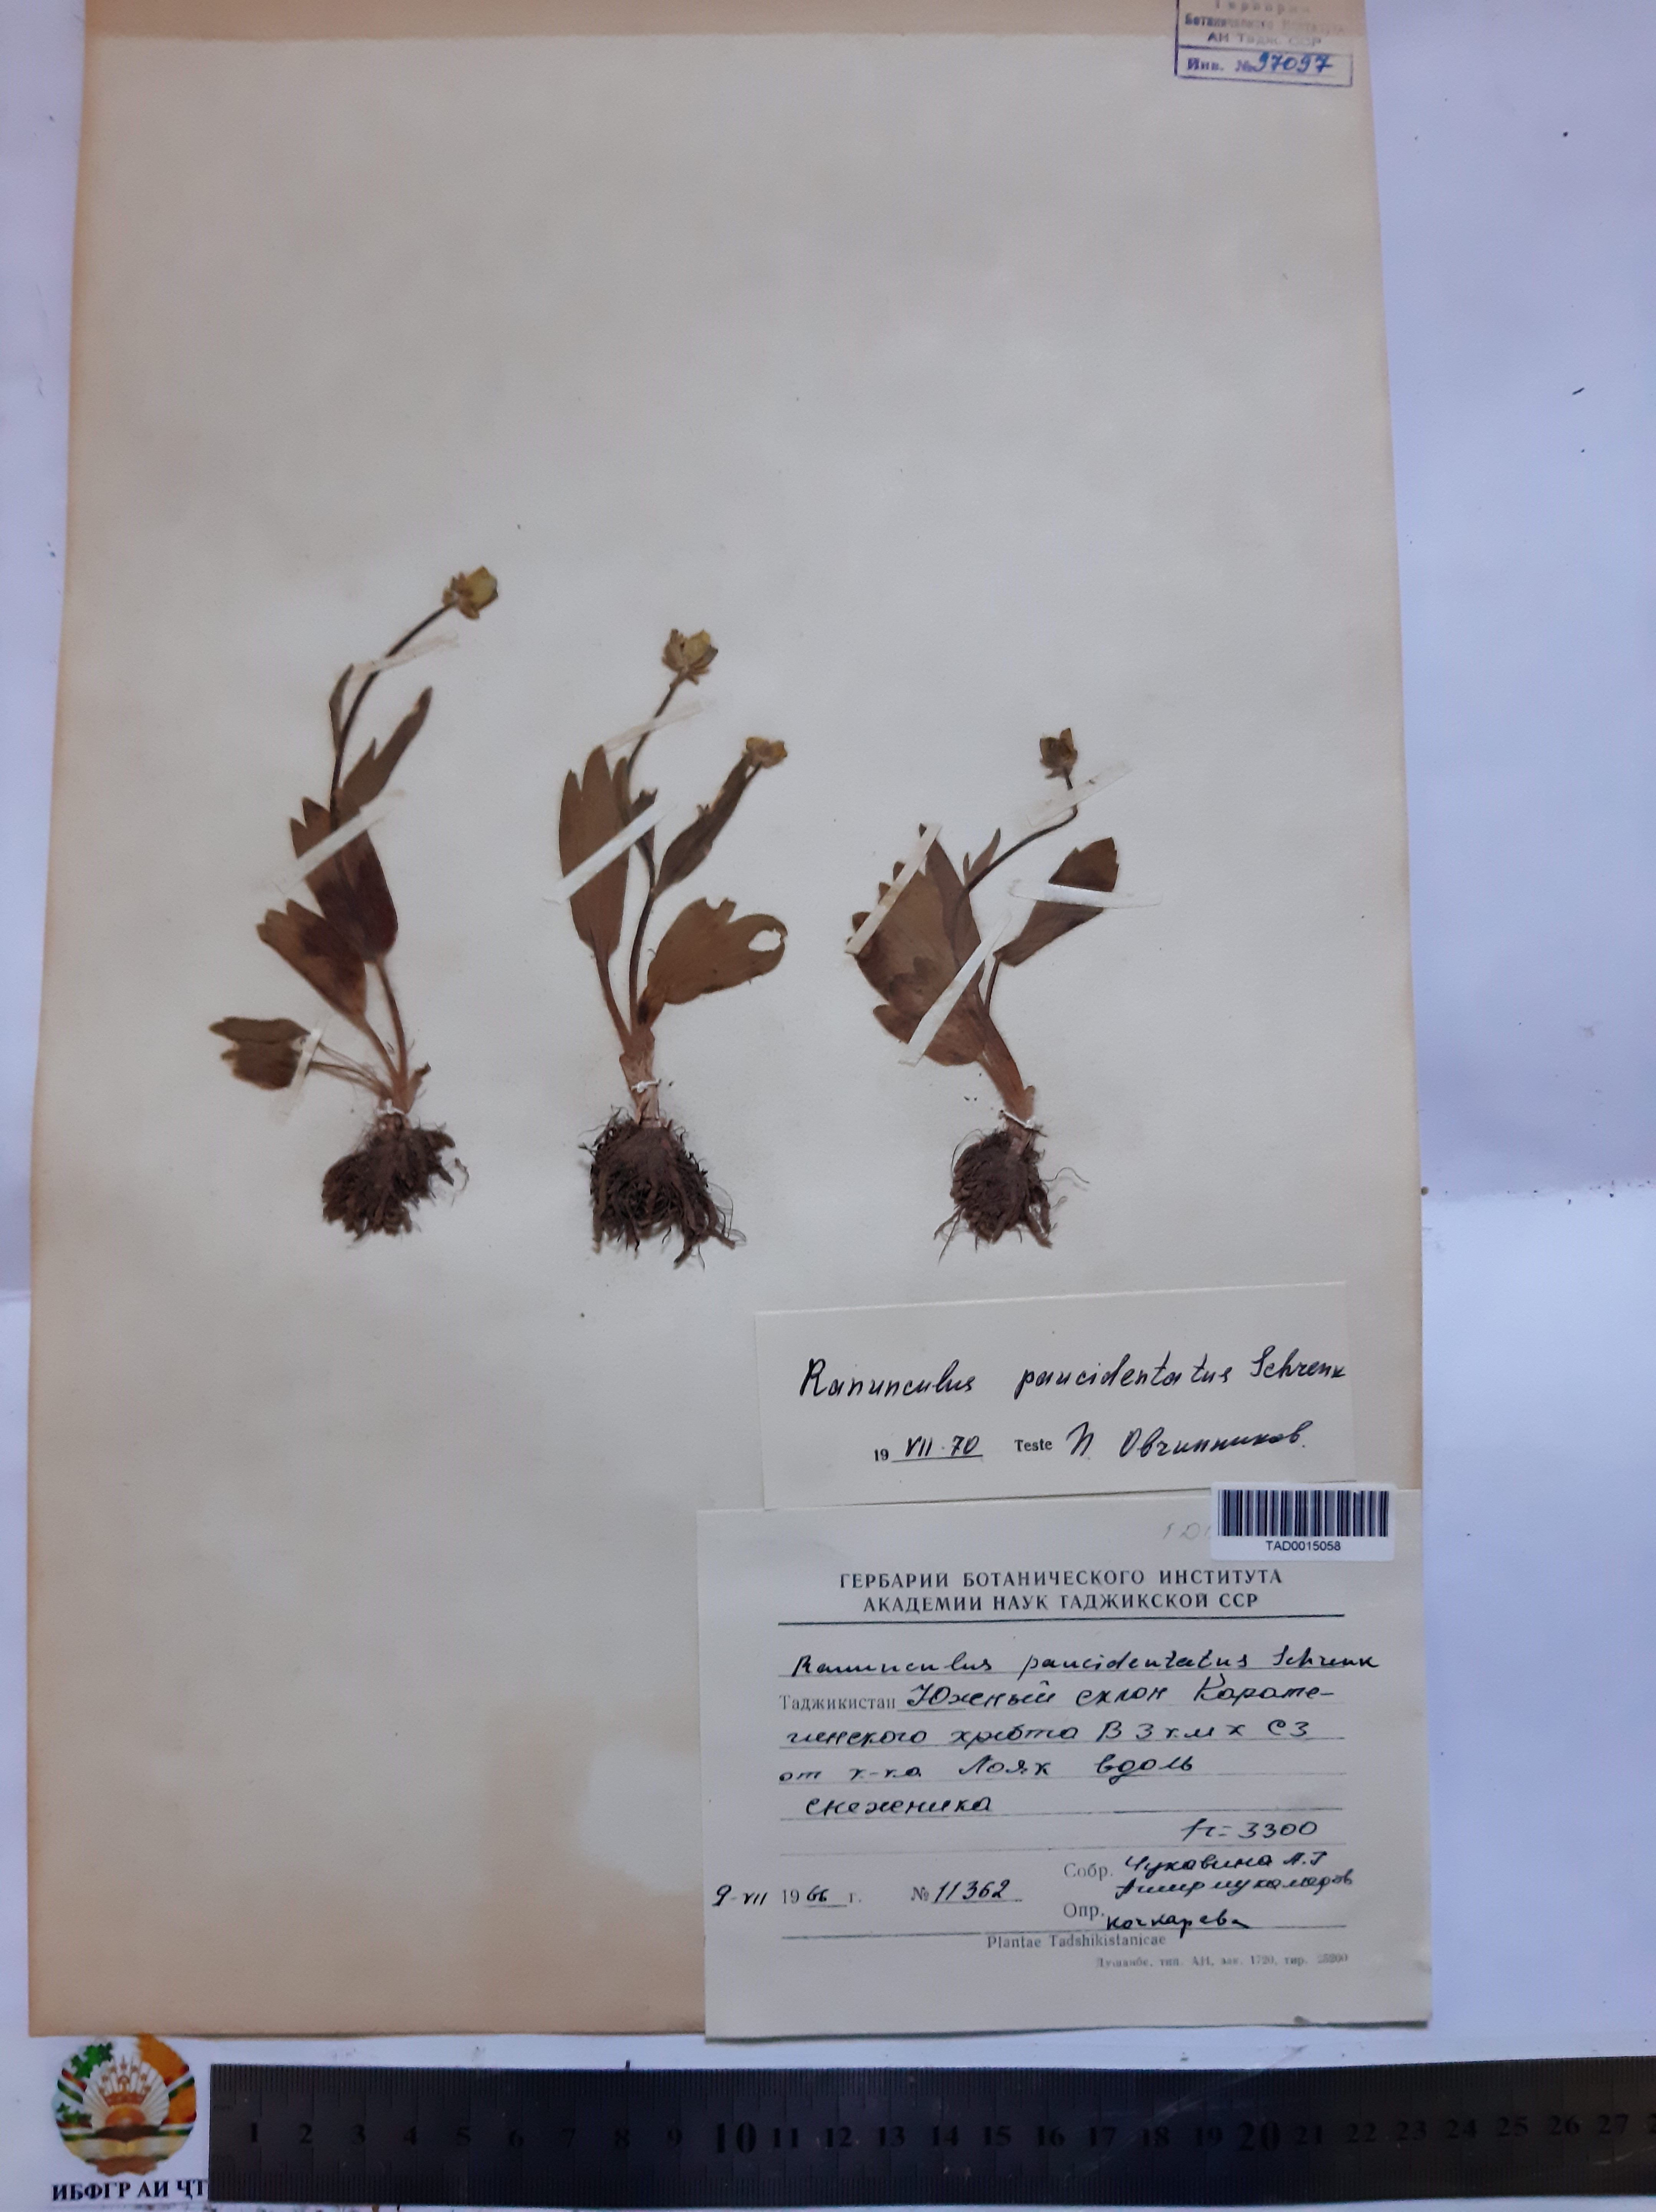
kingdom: Plantae
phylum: Tracheophyta
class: Magnoliopsida
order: Ranunculales
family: Ranunculaceae
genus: Ranunculus
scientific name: Ranunculus paucidentatus
